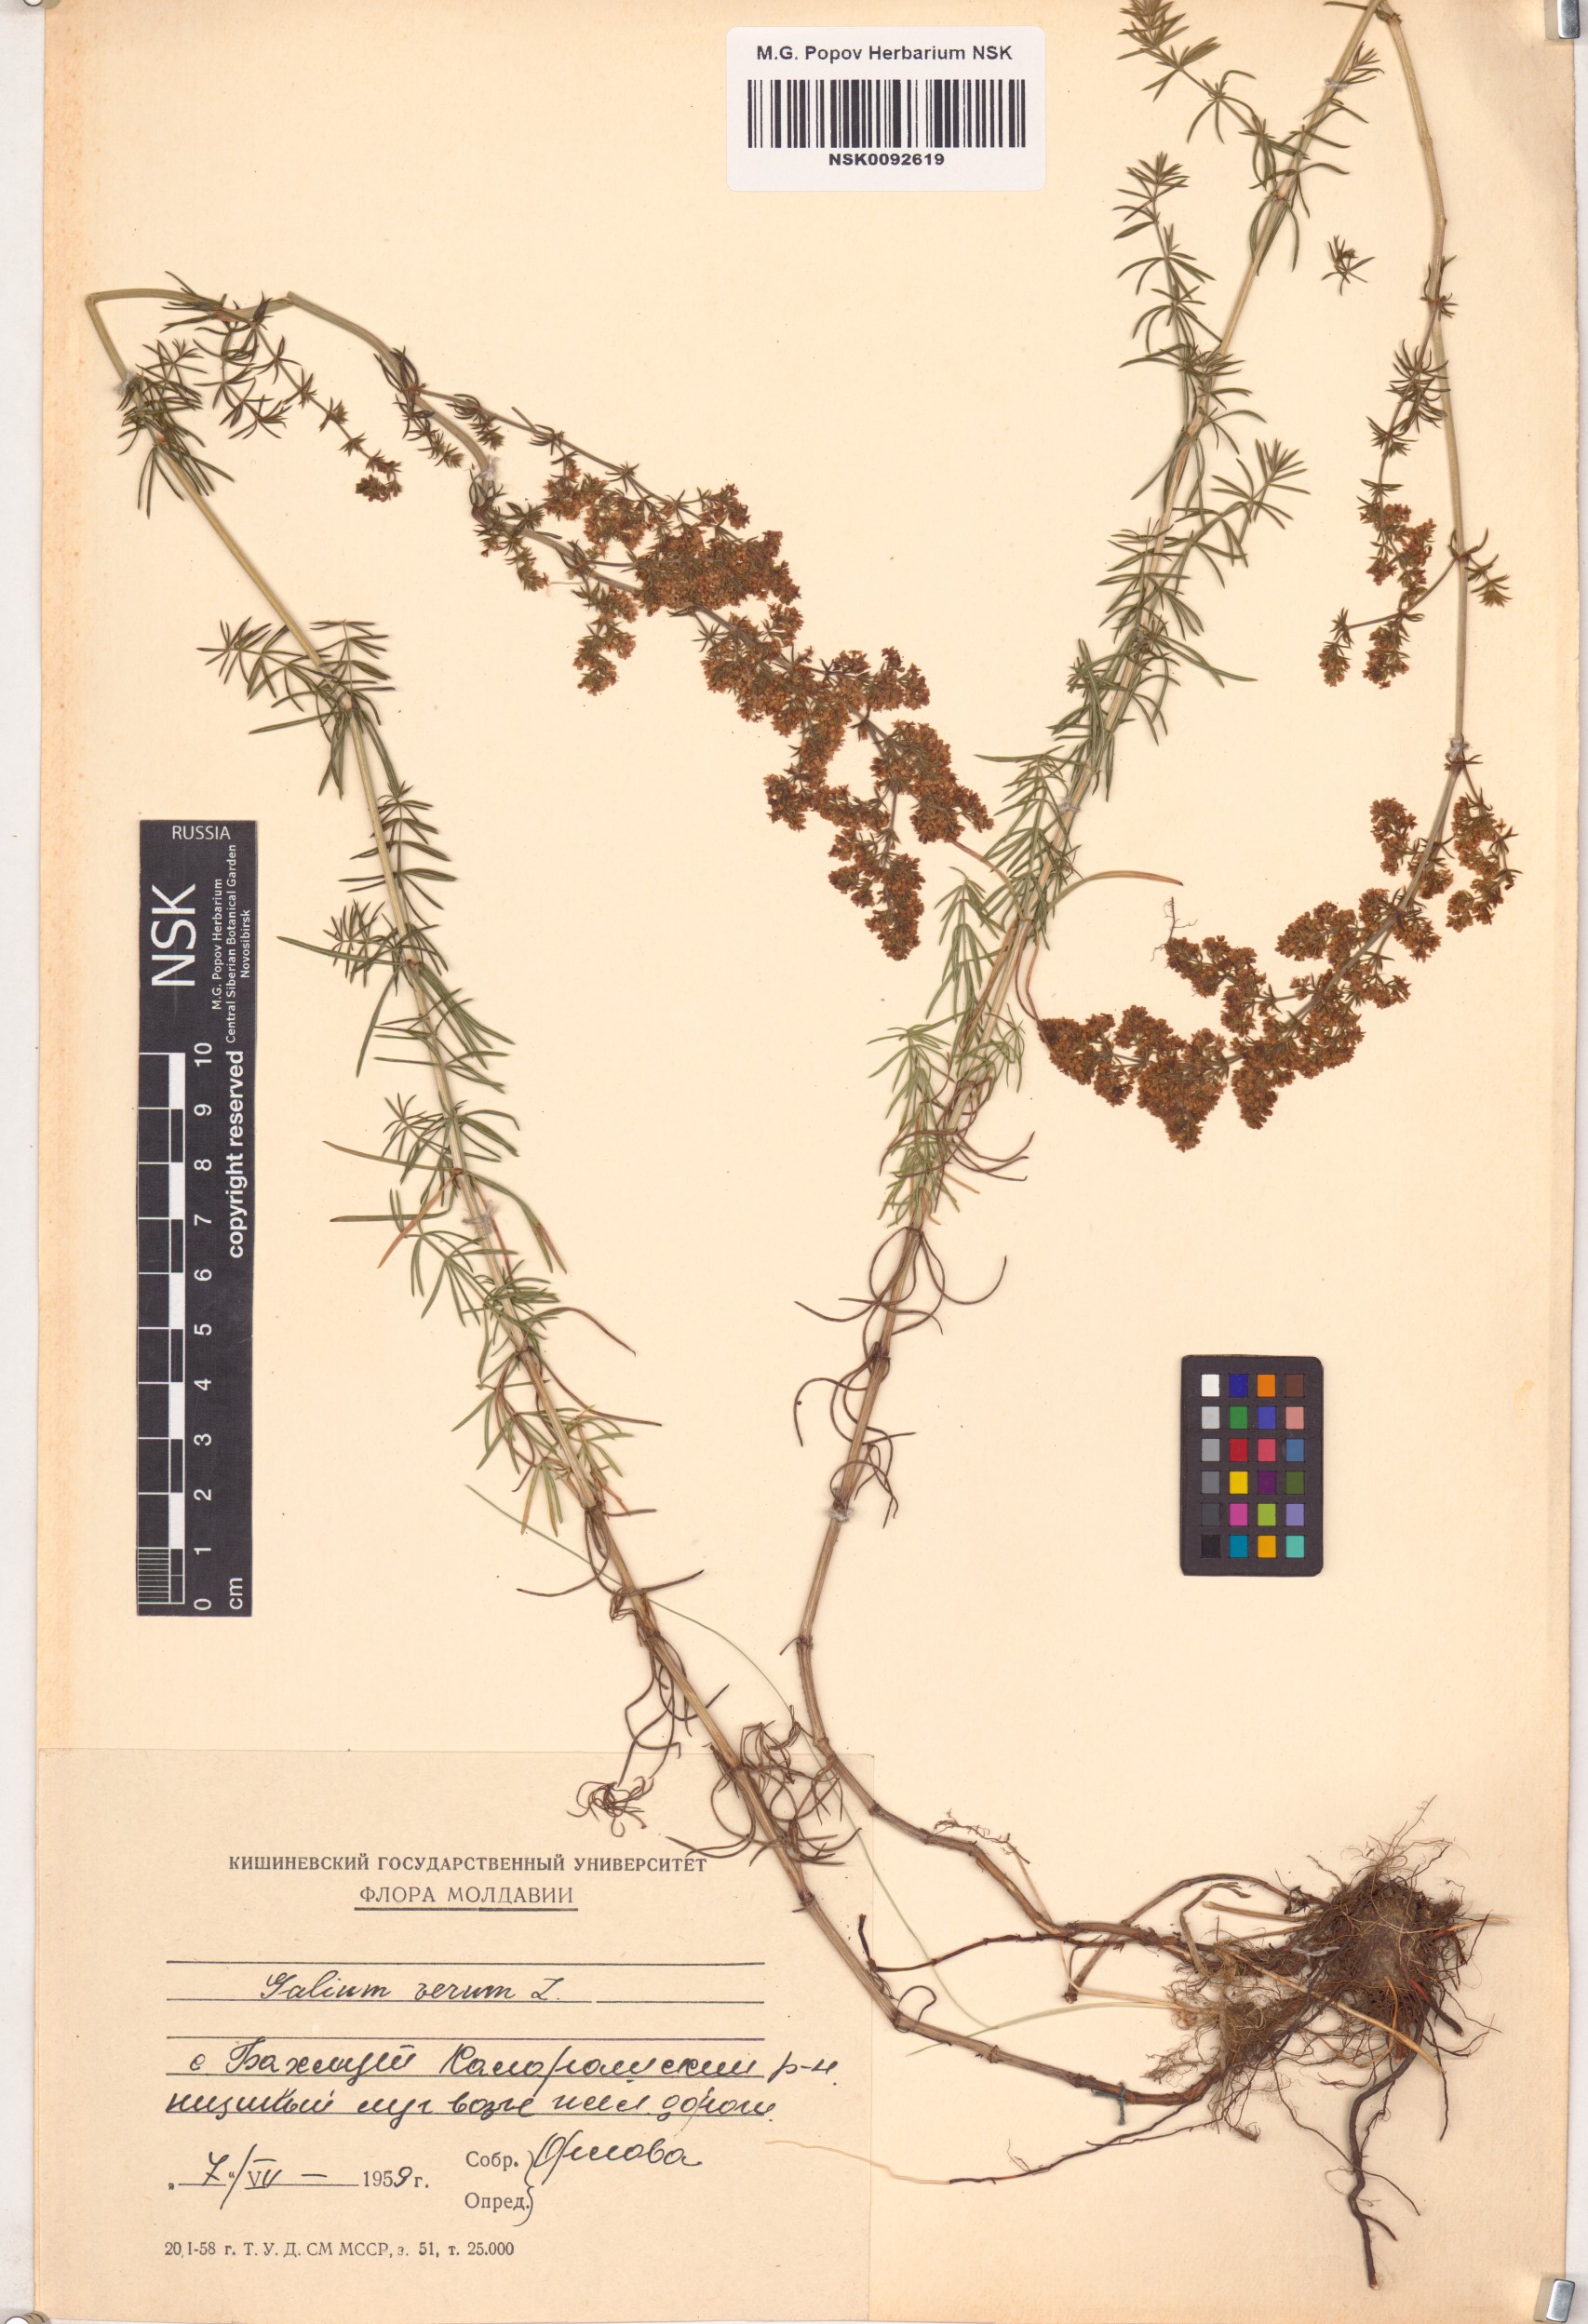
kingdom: Plantae
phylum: Tracheophyta
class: Magnoliopsida
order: Gentianales
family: Rubiaceae
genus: Galium
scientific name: Galium verum
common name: Lady's bedstraw
